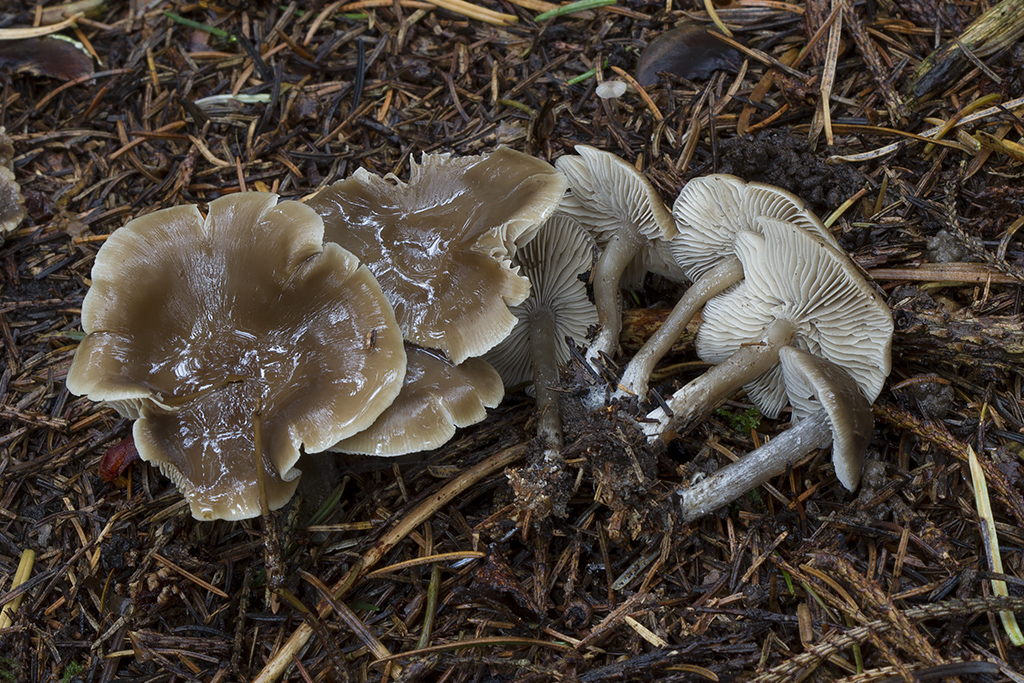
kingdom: Fungi
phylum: Basidiomycota
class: Agaricomycetes
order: Agaricales
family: Lyophyllaceae
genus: Myochromella
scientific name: Myochromella boudieri
